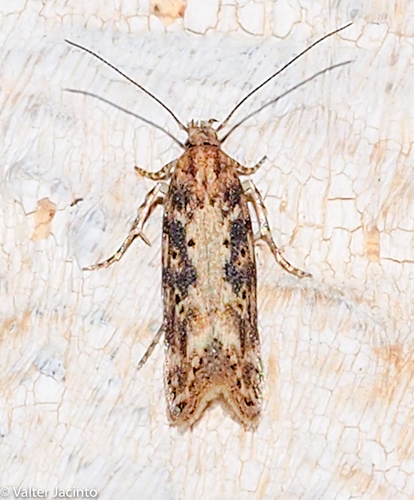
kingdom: Animalia
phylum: Arthropoda
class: Insecta
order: Lepidoptera
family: Gelechiidae
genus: Scrobipalpa
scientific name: Scrobipalpa instabilella
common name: Saltern groundling
